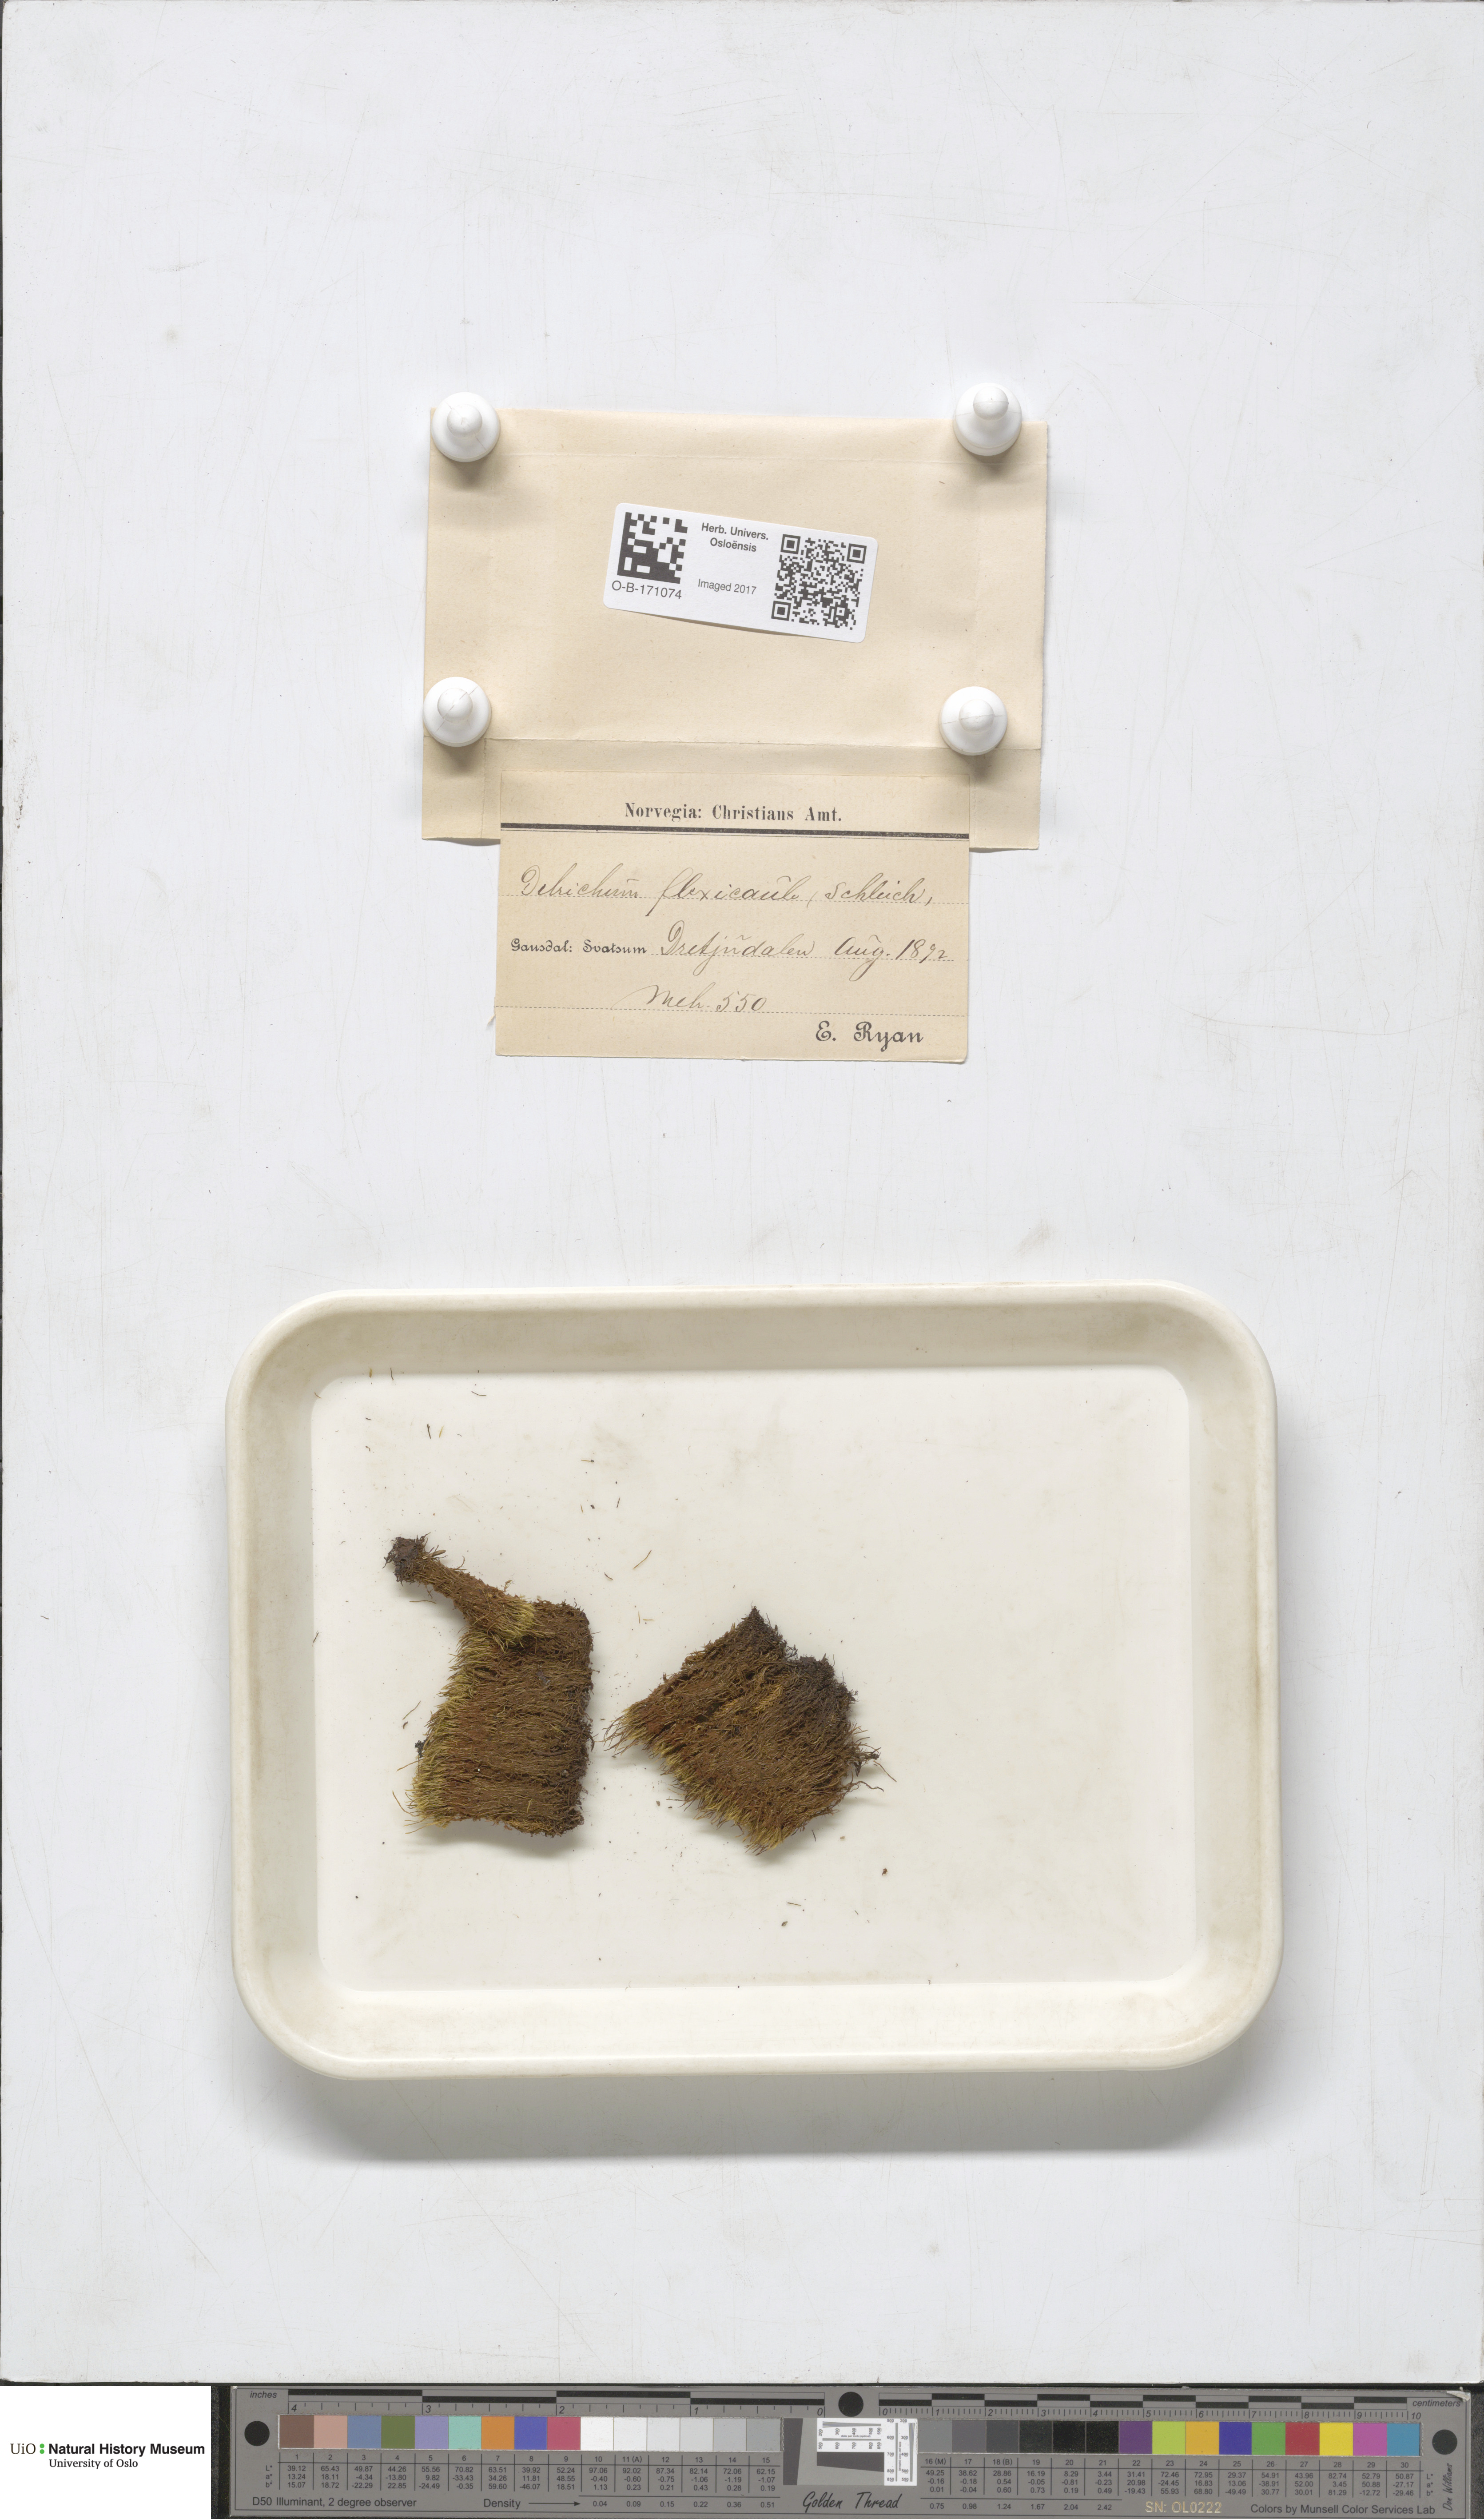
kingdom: Plantae
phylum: Bryophyta
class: Bryopsida
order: Scouleriales
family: Flexitrichaceae
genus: Flexitrichum
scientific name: Flexitrichum flexicaule
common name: Bendy ditrichum
